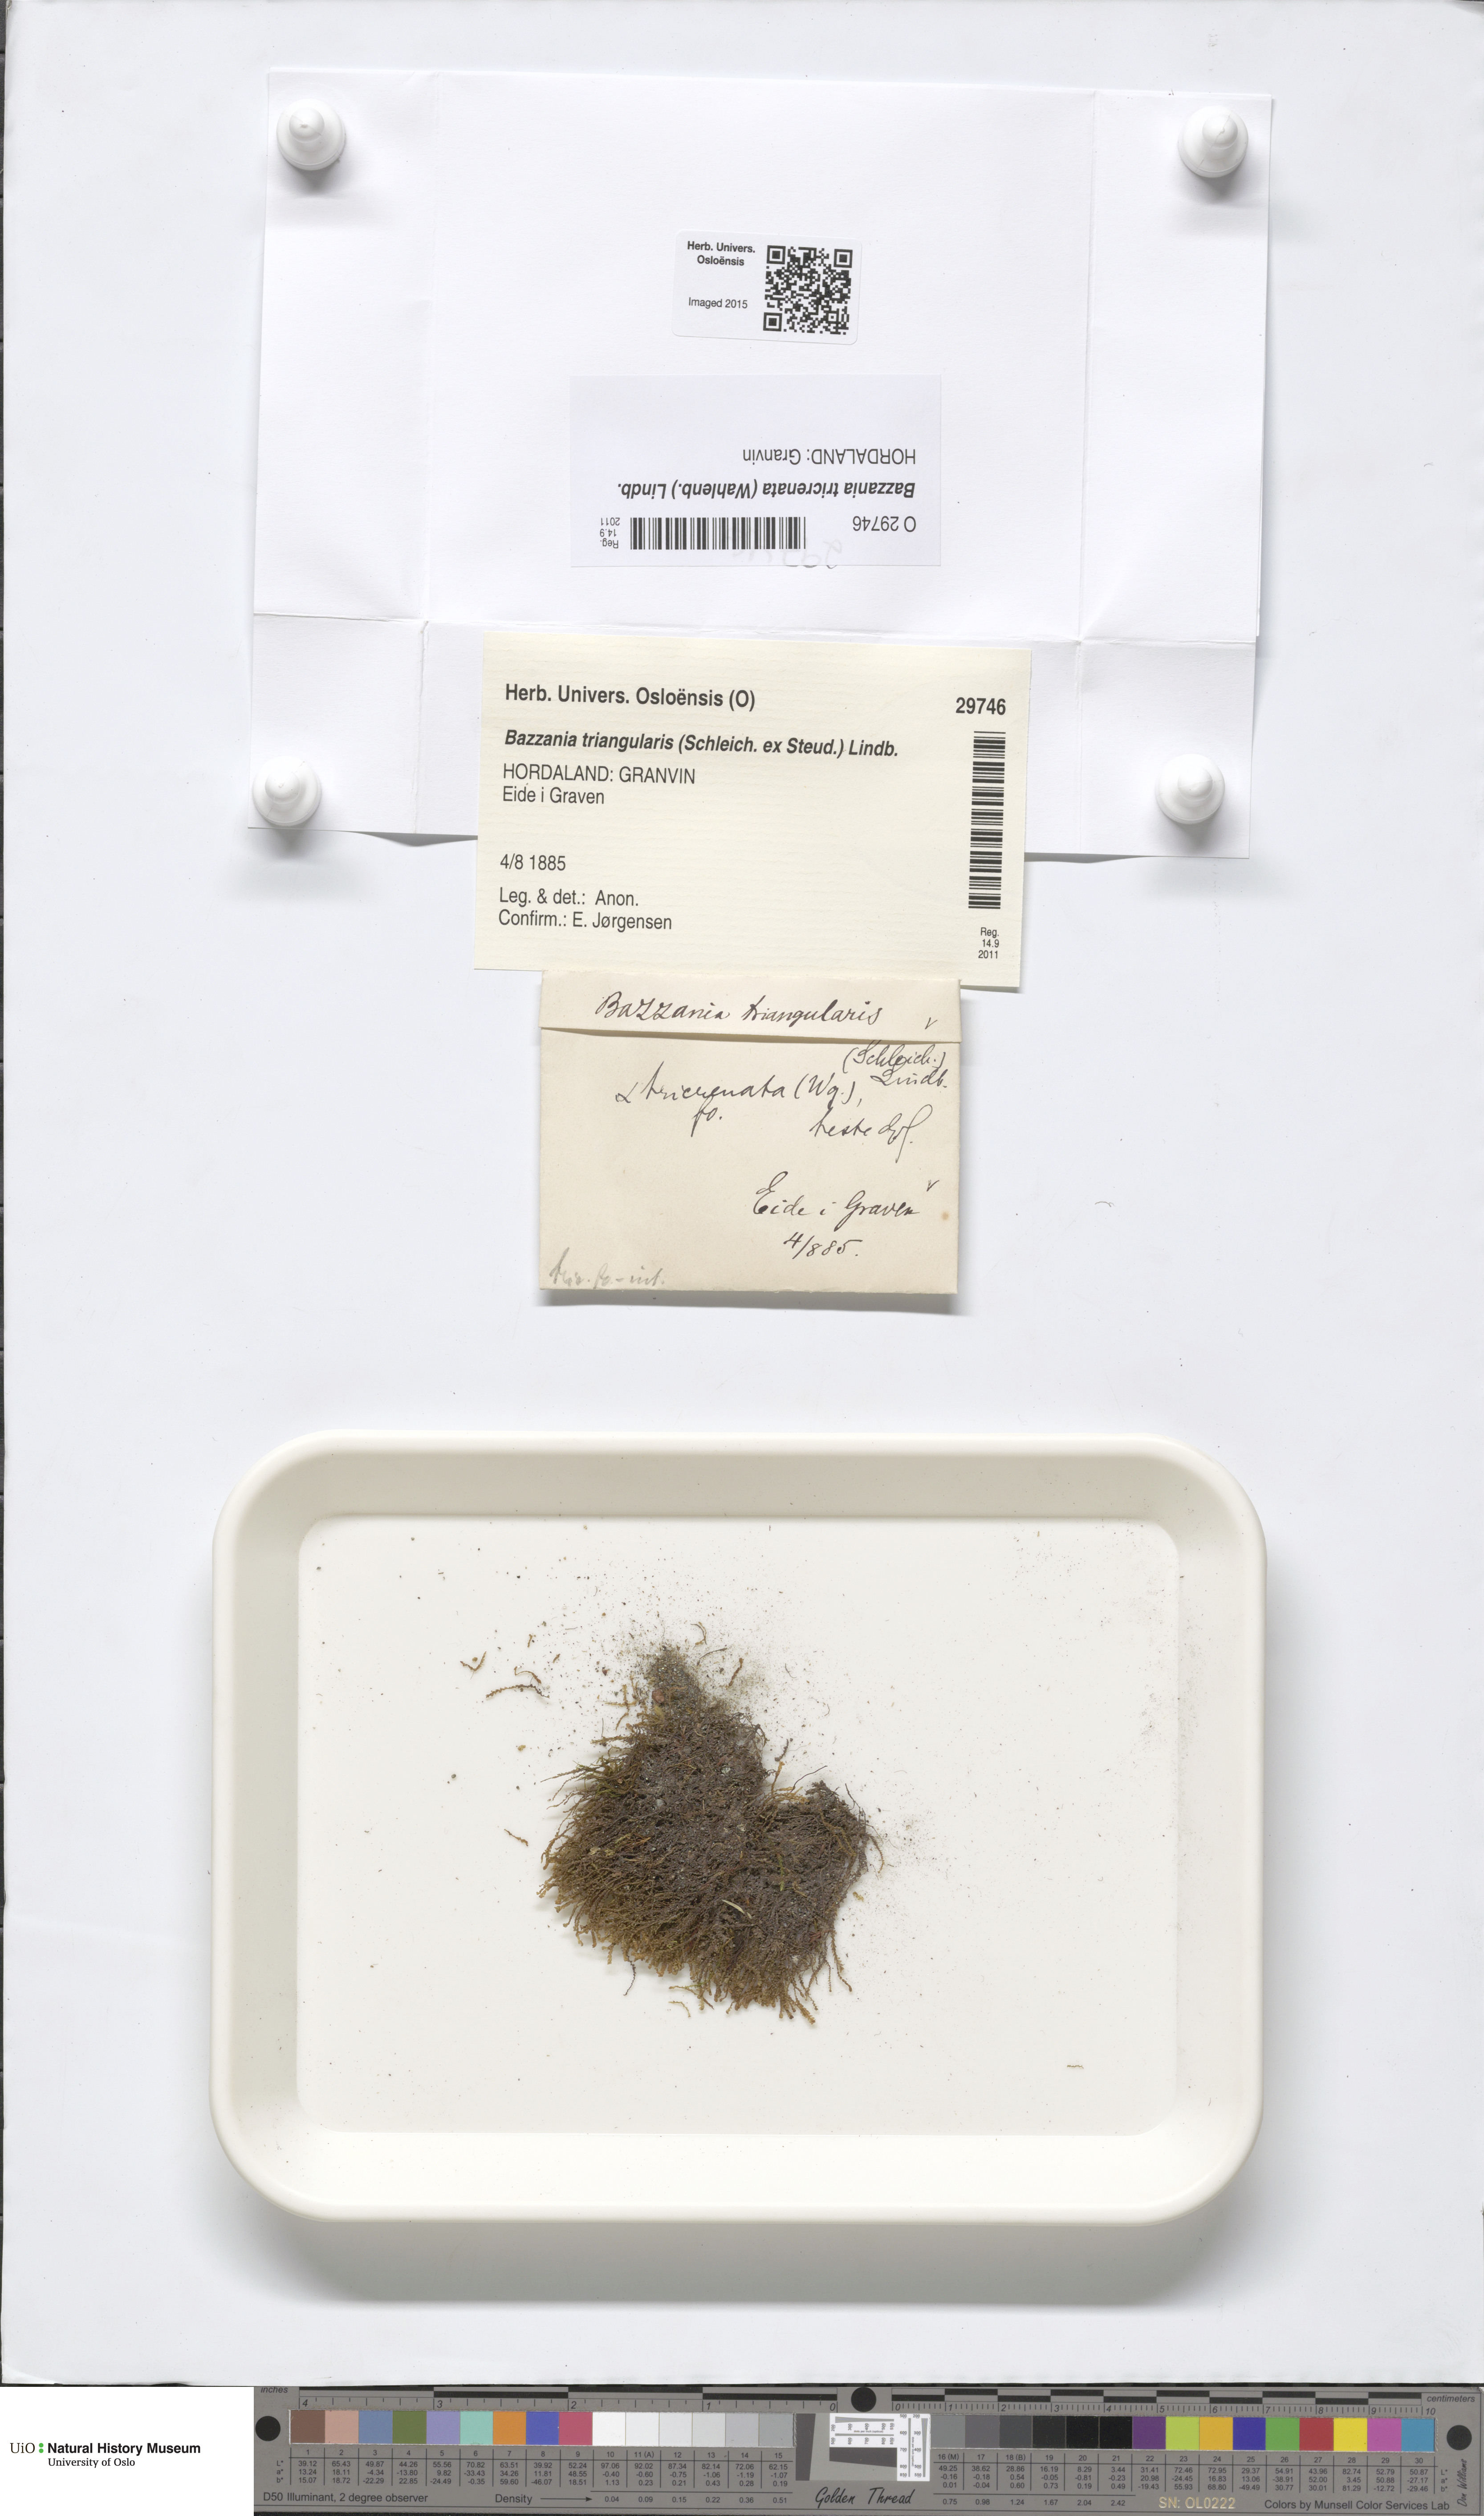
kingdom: Plantae
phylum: Marchantiophyta
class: Jungermanniopsida
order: Jungermanniales
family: Lepidoziaceae
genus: Bazzania
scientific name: Bazzania tricrenata
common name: Lesser whipwort
